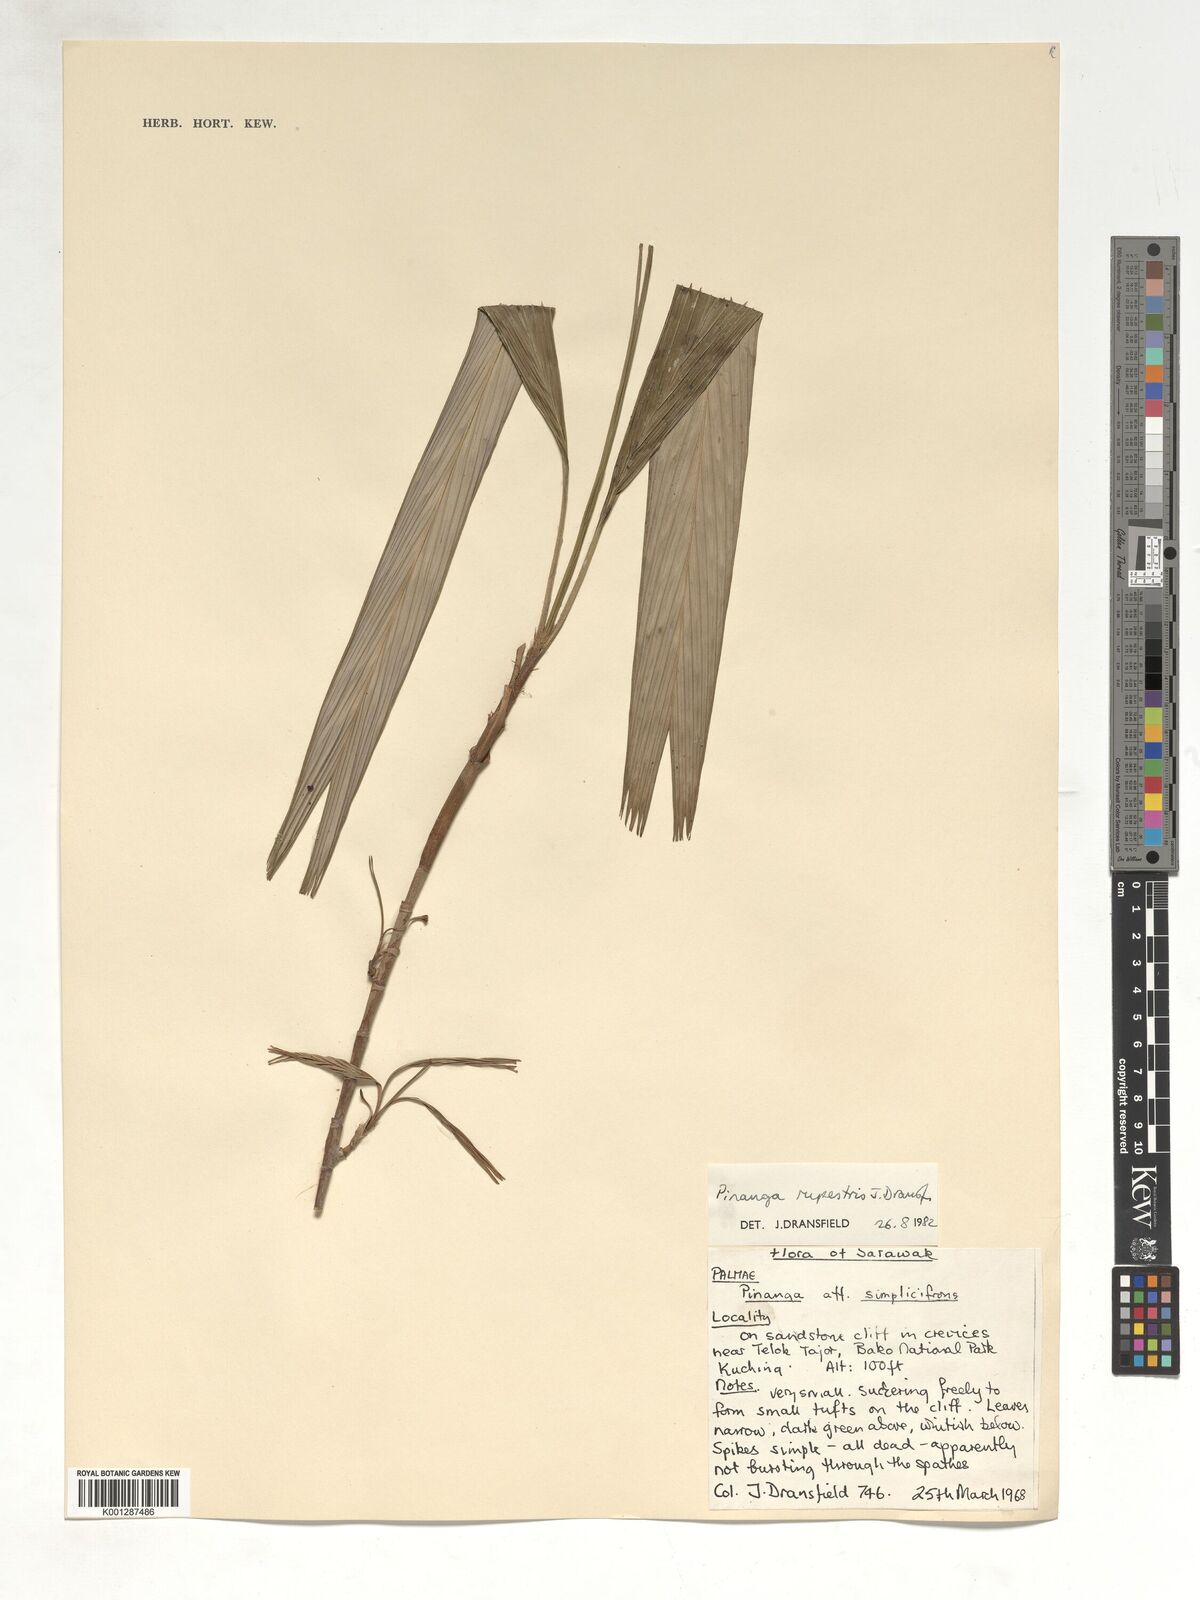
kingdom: Plantae
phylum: Tracheophyta
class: Liliopsida
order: Arecales
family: Arecaceae
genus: Pinanga
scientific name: Pinanga rupestris
